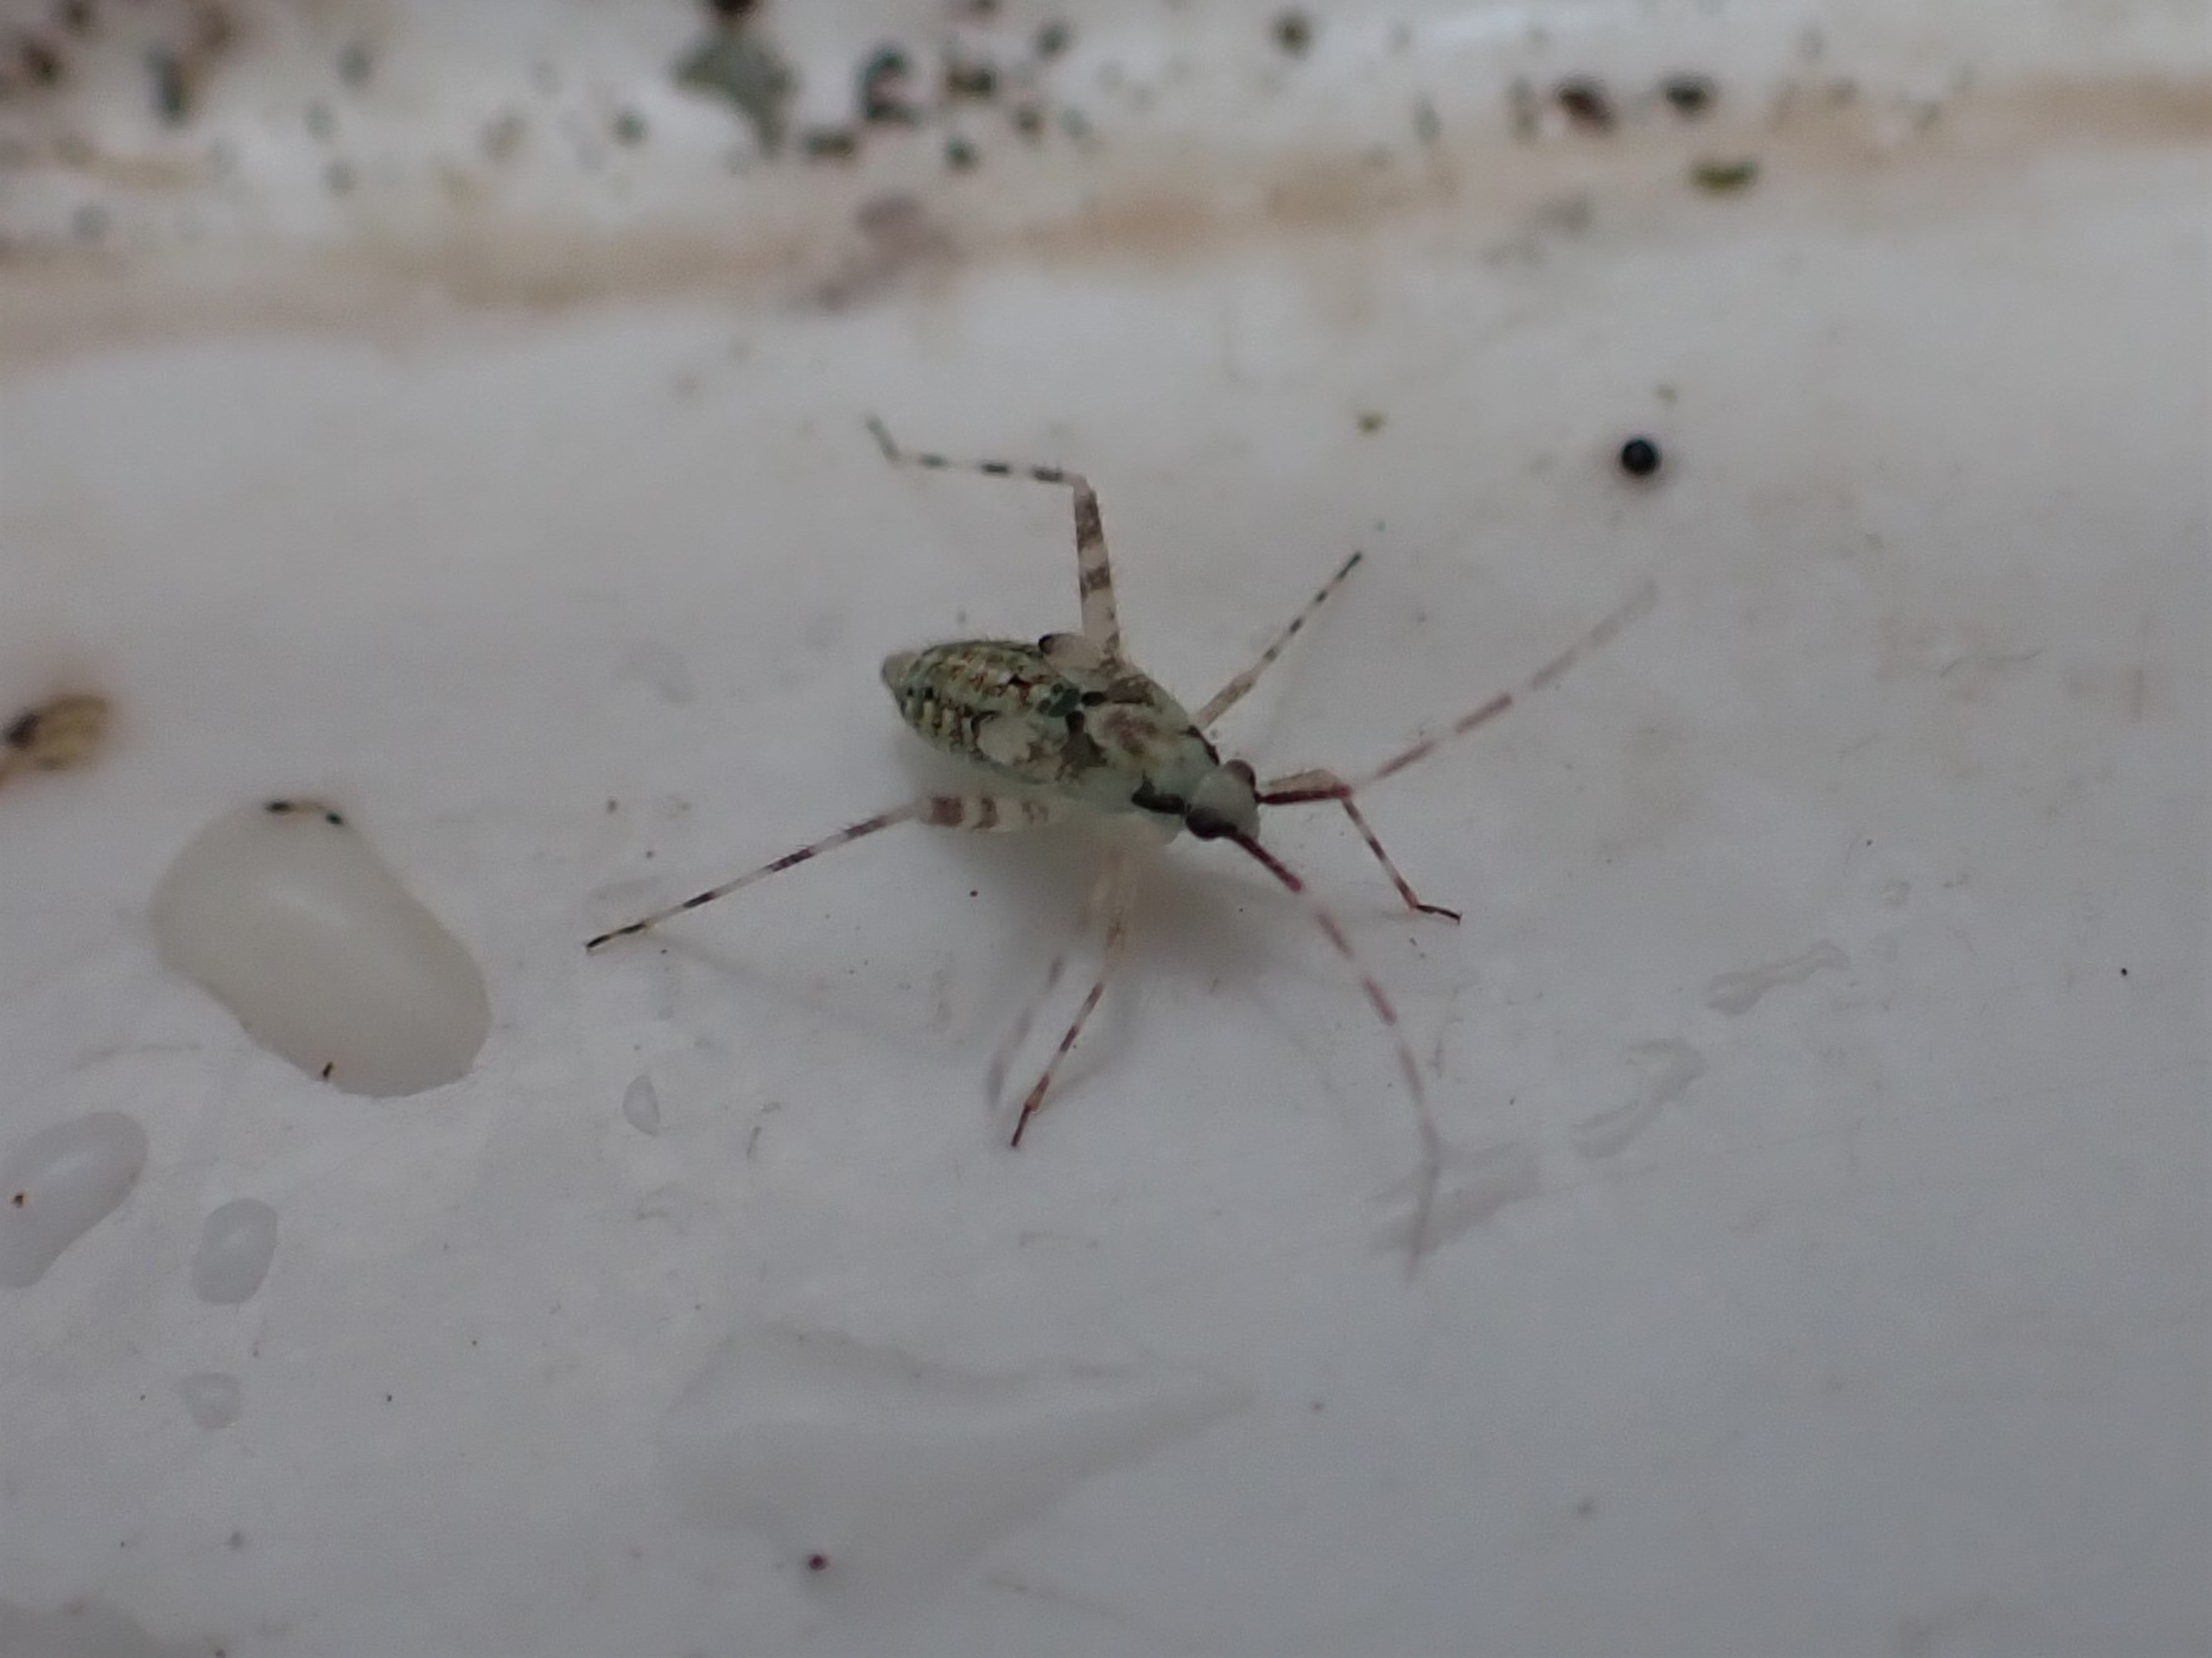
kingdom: Animalia
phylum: Arthropoda
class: Insecta
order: Hemiptera
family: Miridae
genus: Phytocoris
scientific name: Phytocoris tiliae
